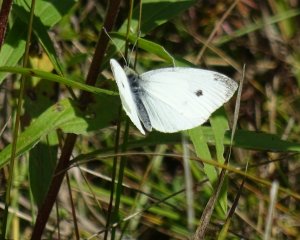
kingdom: Animalia
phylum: Arthropoda
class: Insecta
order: Lepidoptera
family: Pieridae
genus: Pieris
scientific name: Pieris rapae
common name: Cabbage White
